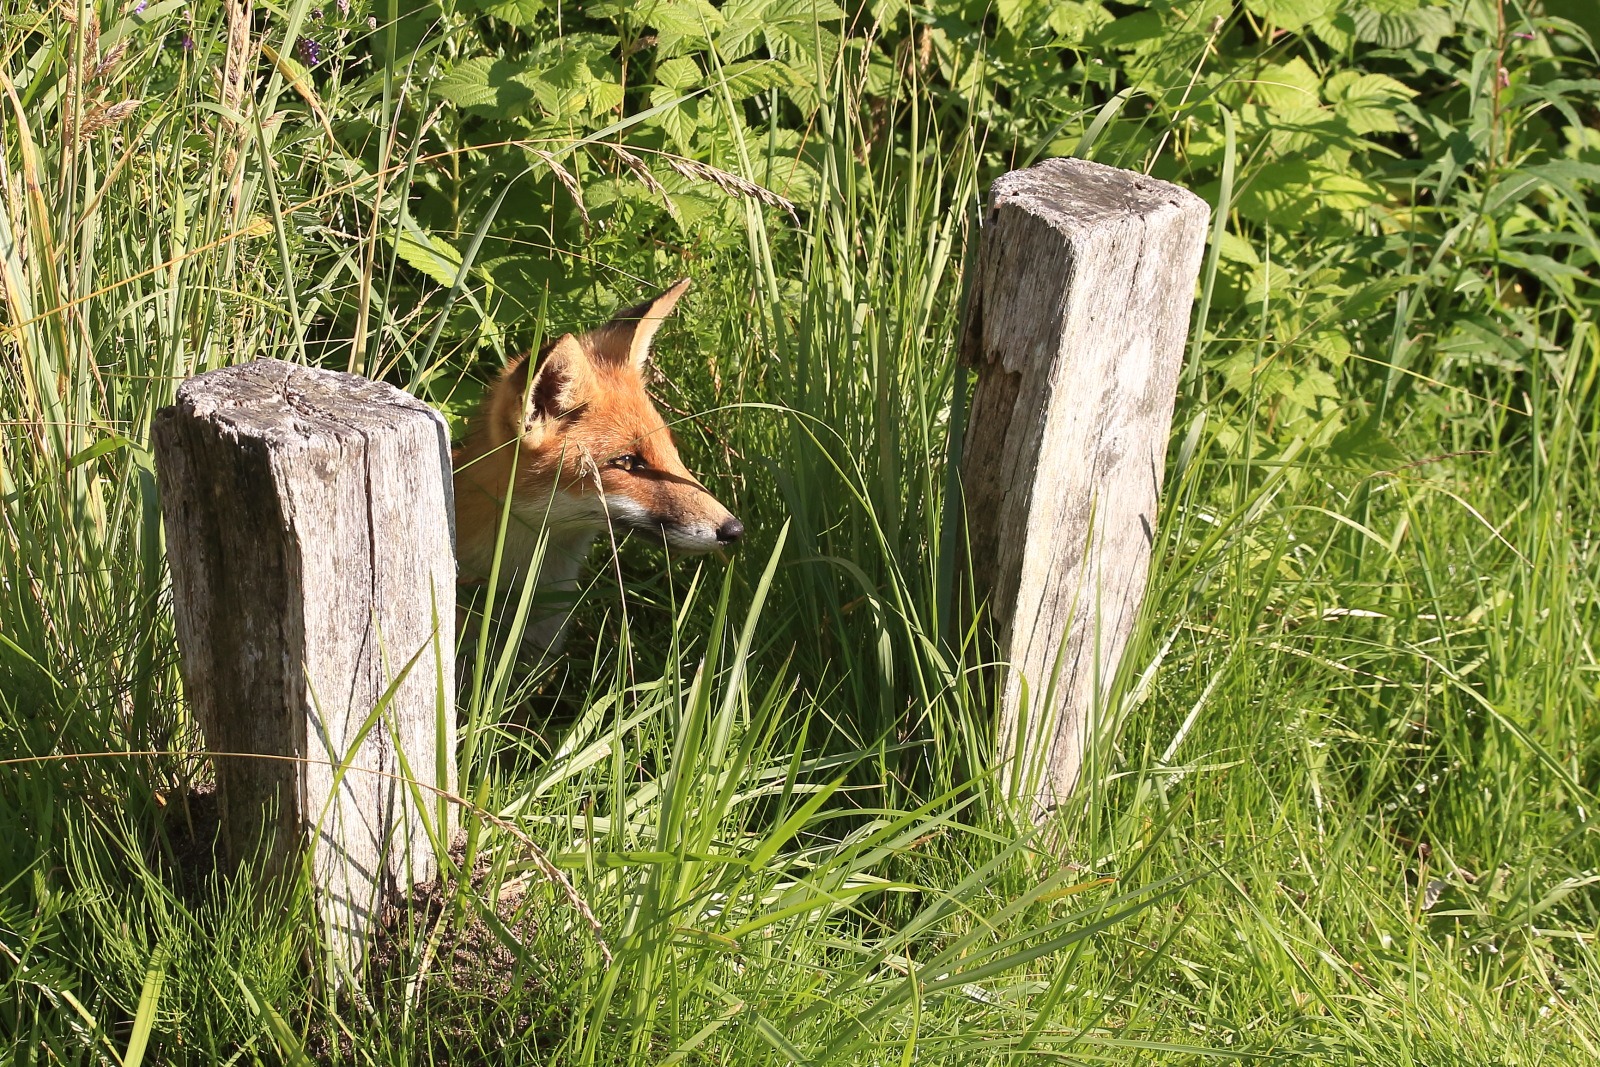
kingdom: Animalia
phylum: Chordata
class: Mammalia
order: Carnivora
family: Canidae
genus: Vulpes
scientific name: Vulpes vulpes
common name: Ræv
